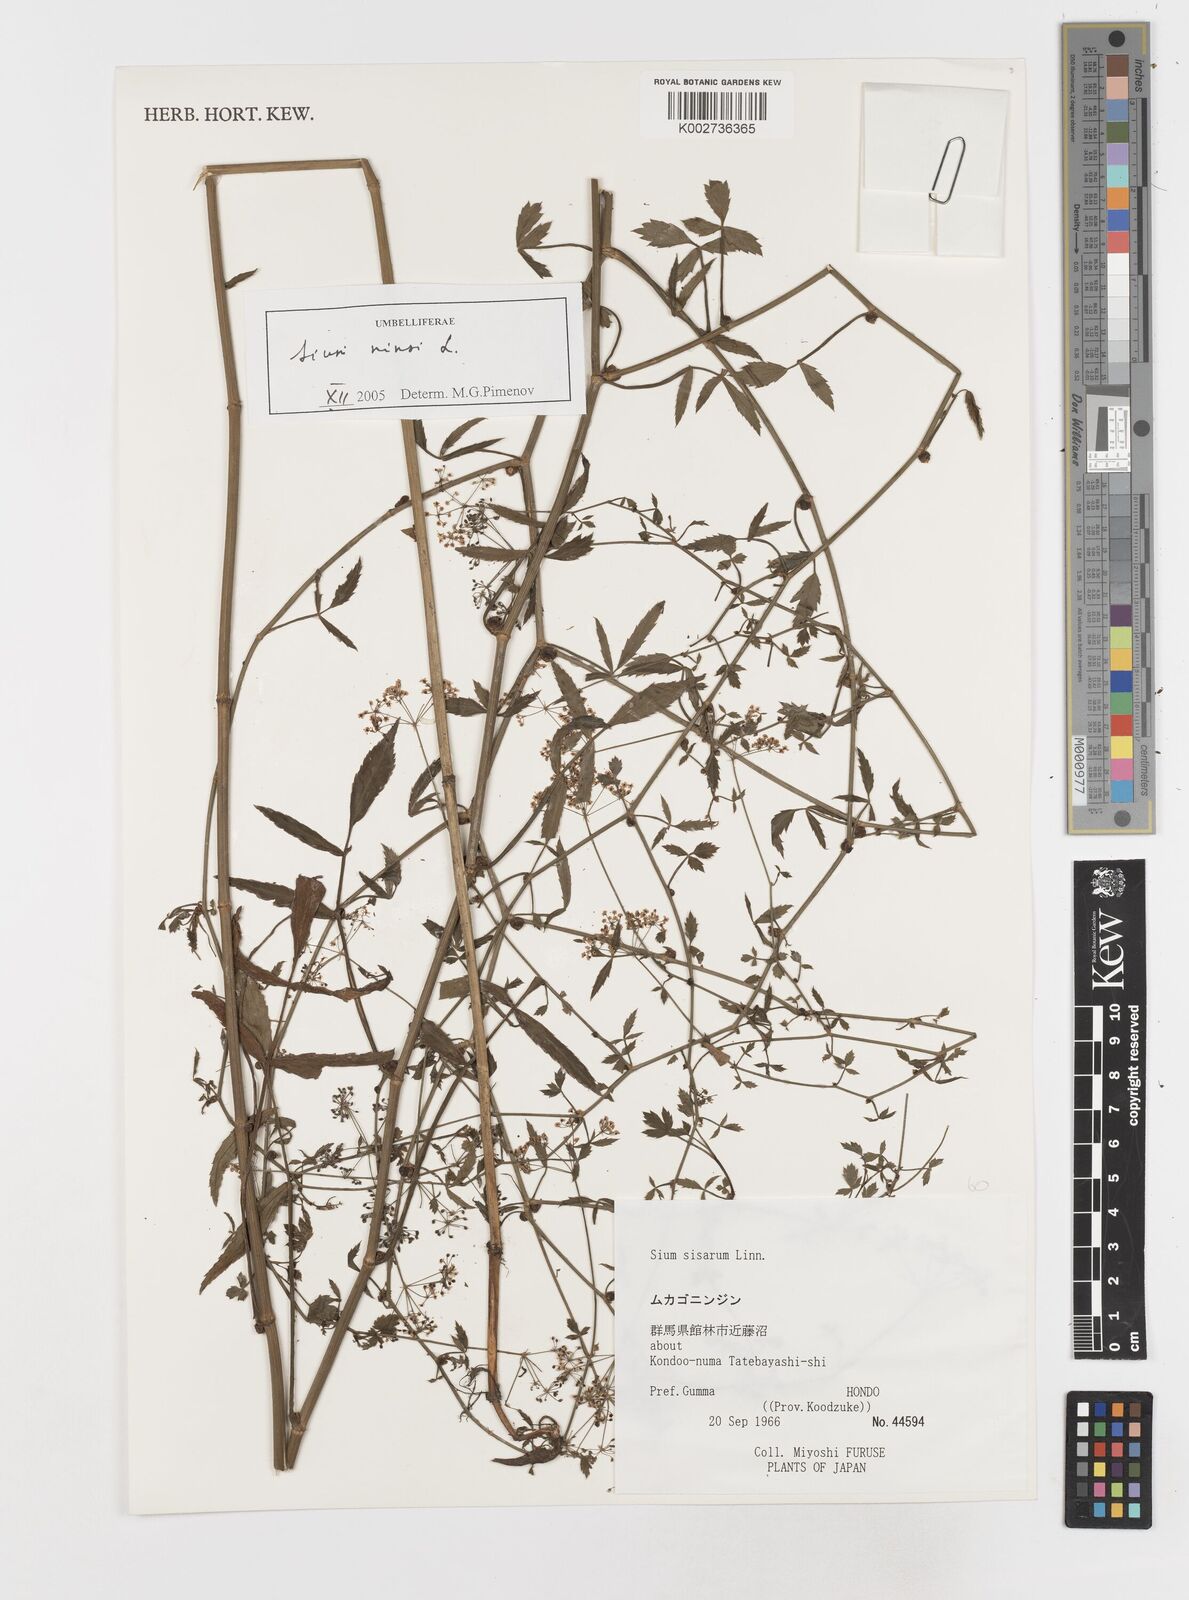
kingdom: Plantae
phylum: Tracheophyta
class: Magnoliopsida
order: Apiales
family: Apiaceae
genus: Sium
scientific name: Sium ninsi
